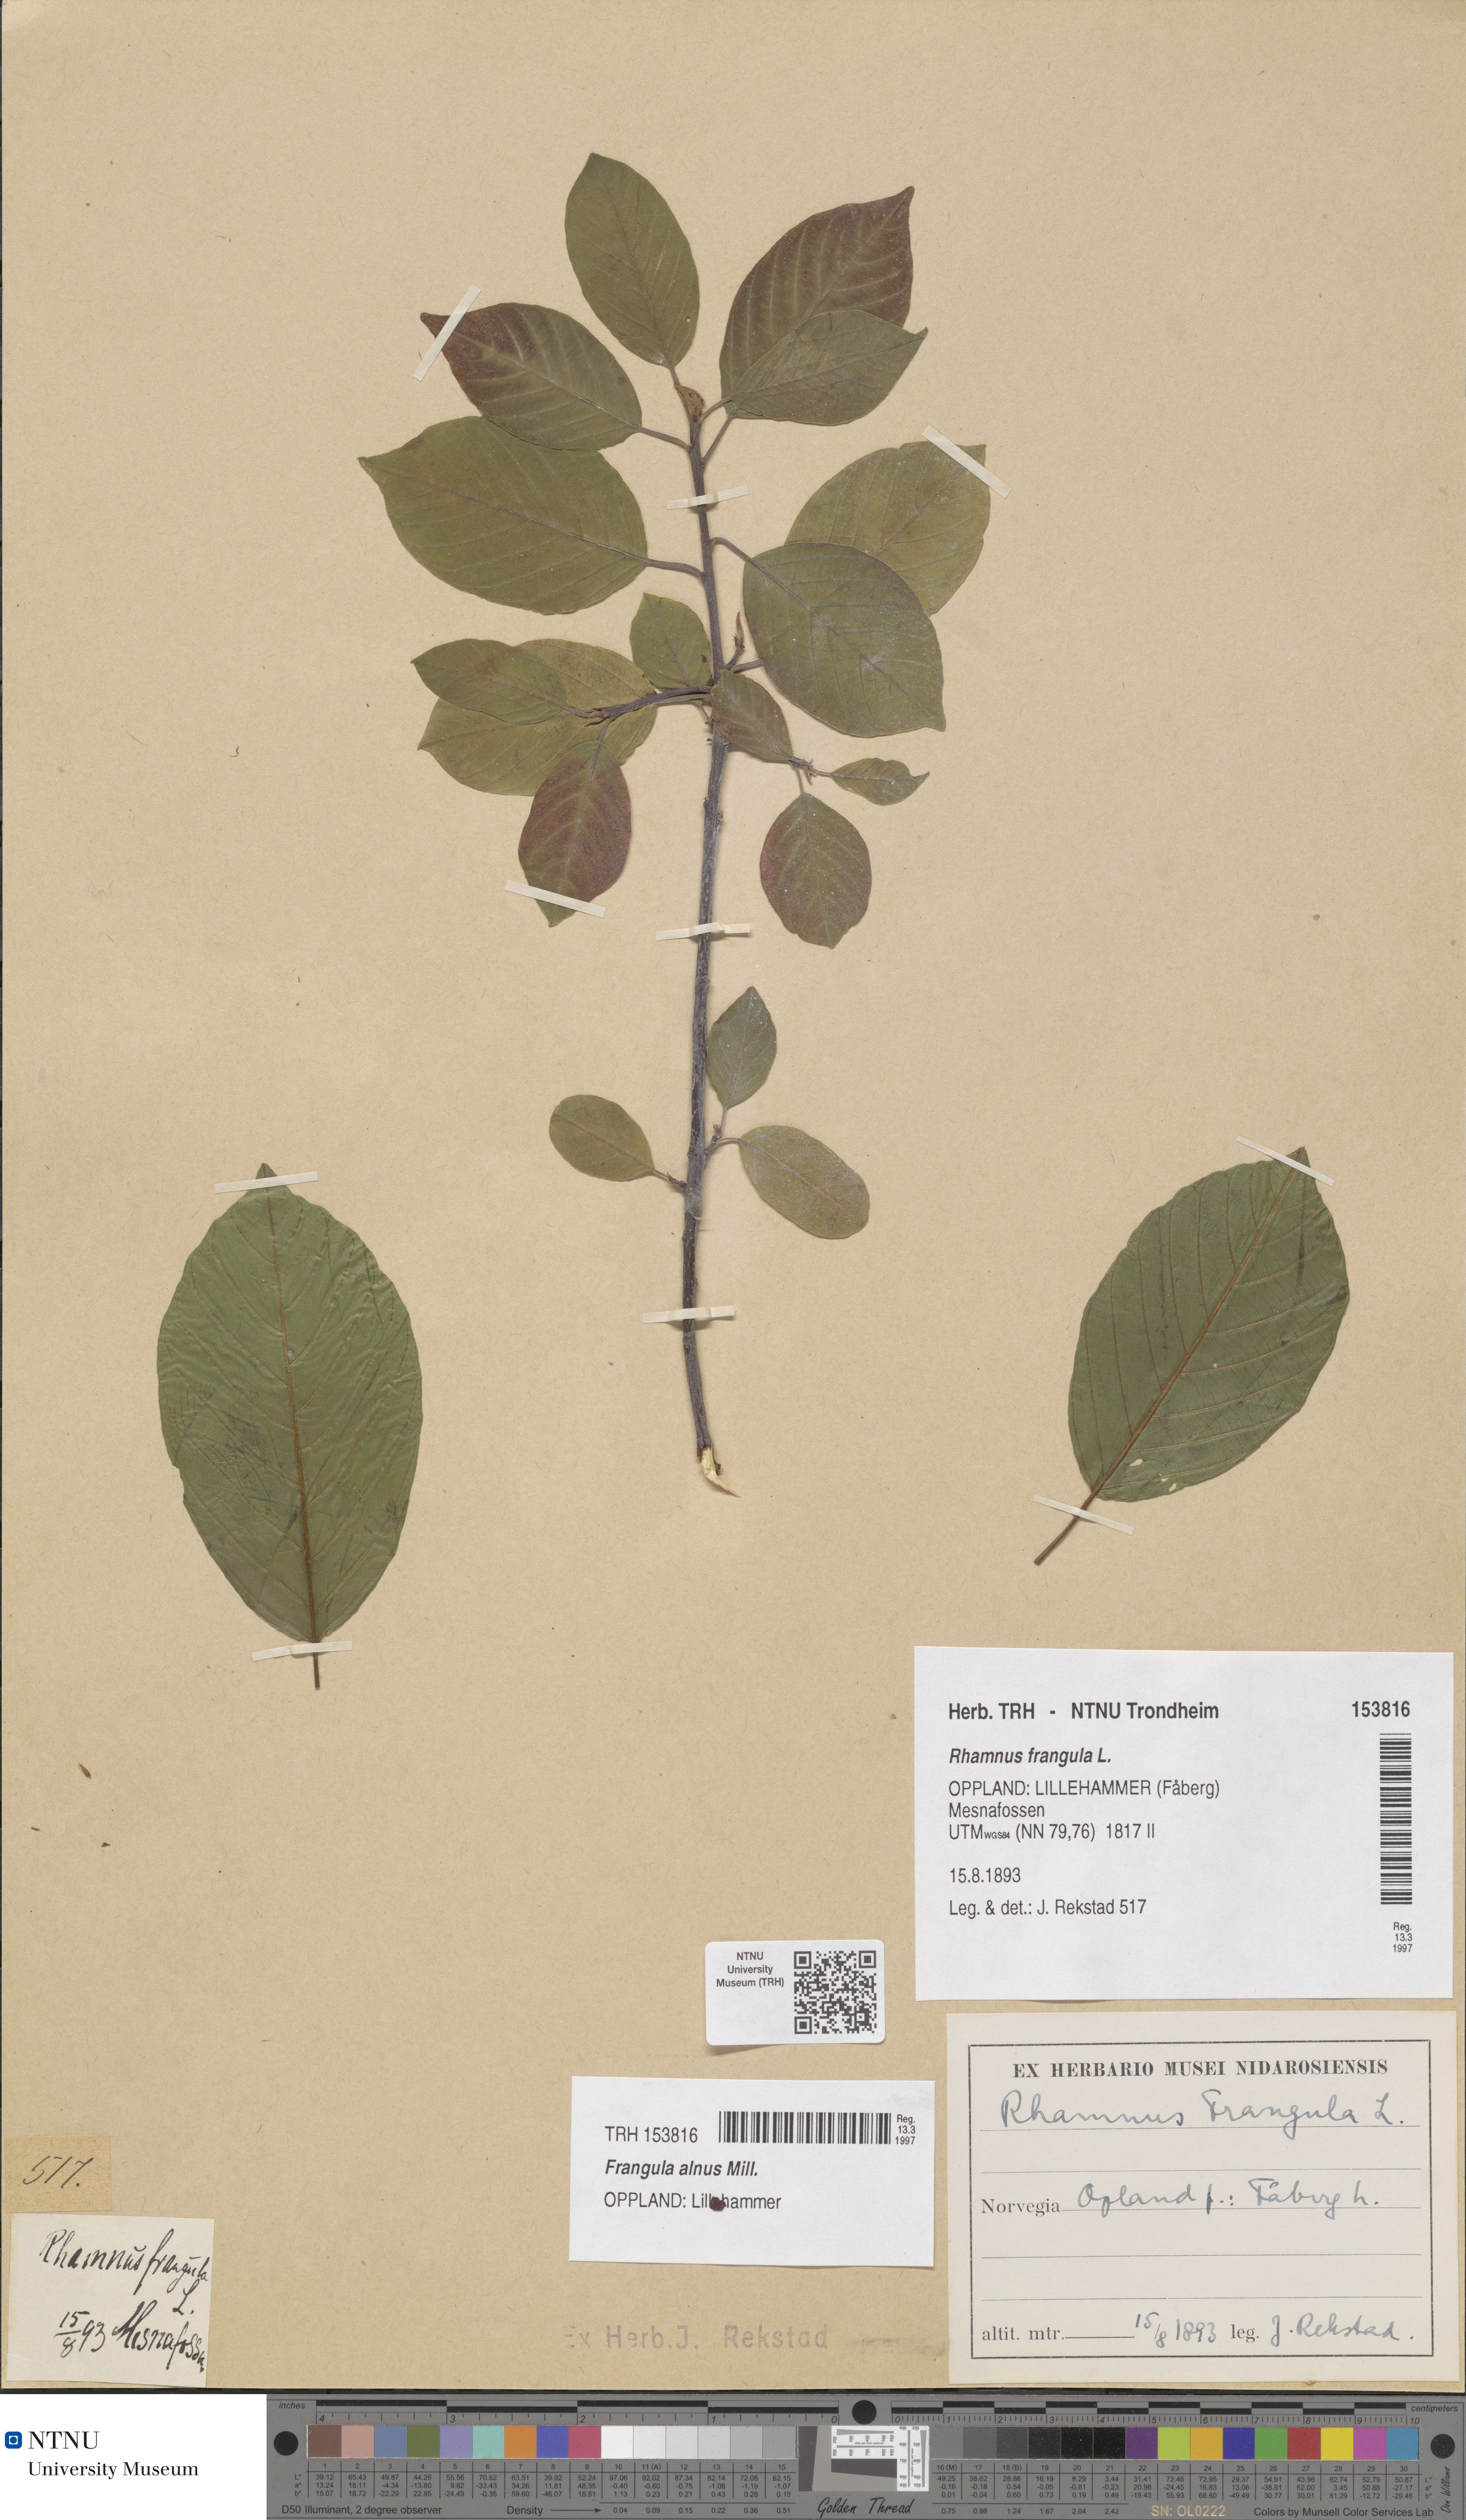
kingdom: Plantae
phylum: Tracheophyta
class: Magnoliopsida
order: Rosales
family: Rhamnaceae
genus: Frangula
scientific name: Frangula alnus
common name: Alder buckthorn
